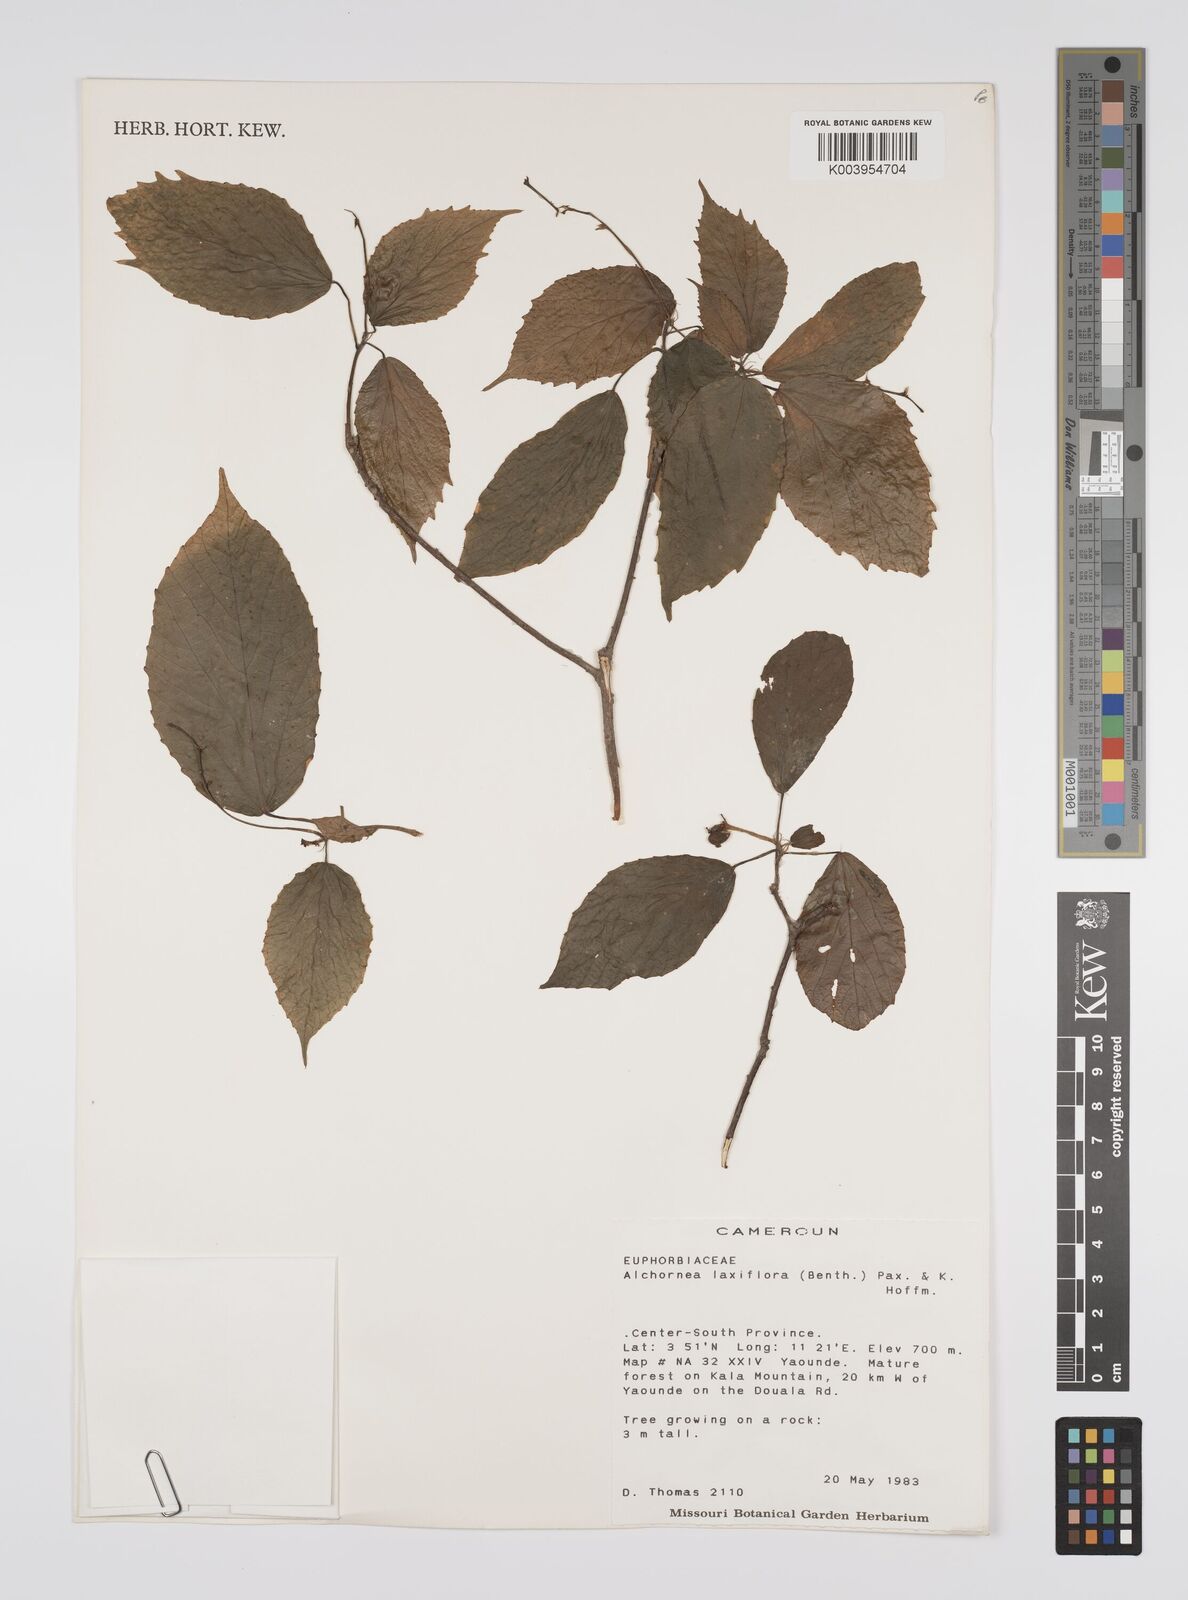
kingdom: Plantae
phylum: Tracheophyta
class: Magnoliopsida
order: Malpighiales
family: Euphorbiaceae
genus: Alchornea
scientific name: Alchornea laxiflora
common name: Lowveld bead-string
